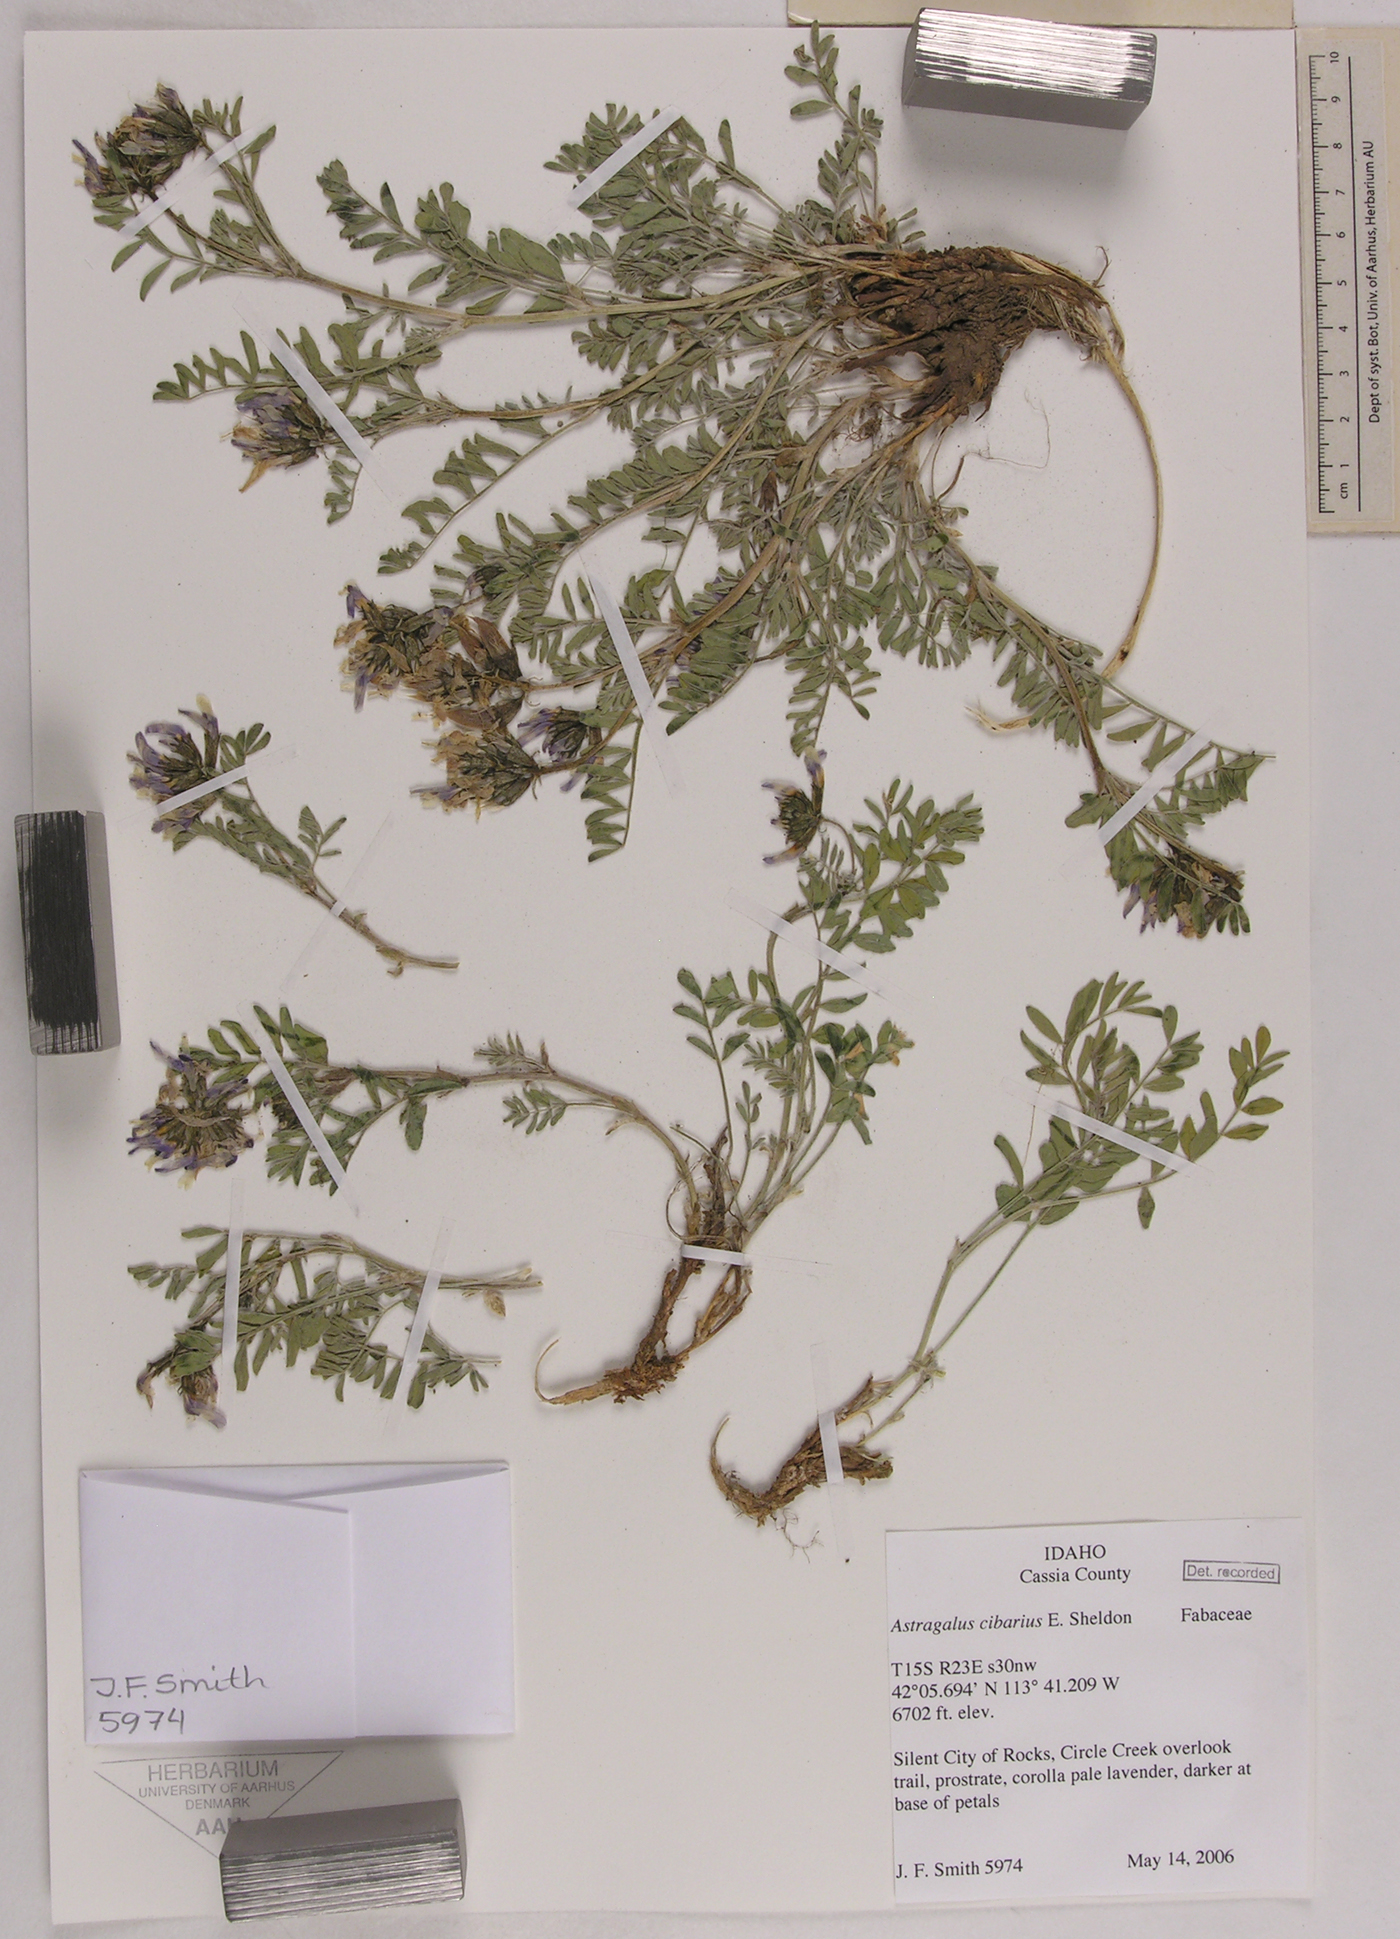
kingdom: Plantae
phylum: Tracheophyta
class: Magnoliopsida
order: Fabales
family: Fabaceae
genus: Astragalus
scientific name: Astragalus cibarius
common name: Browse milk-vetch
